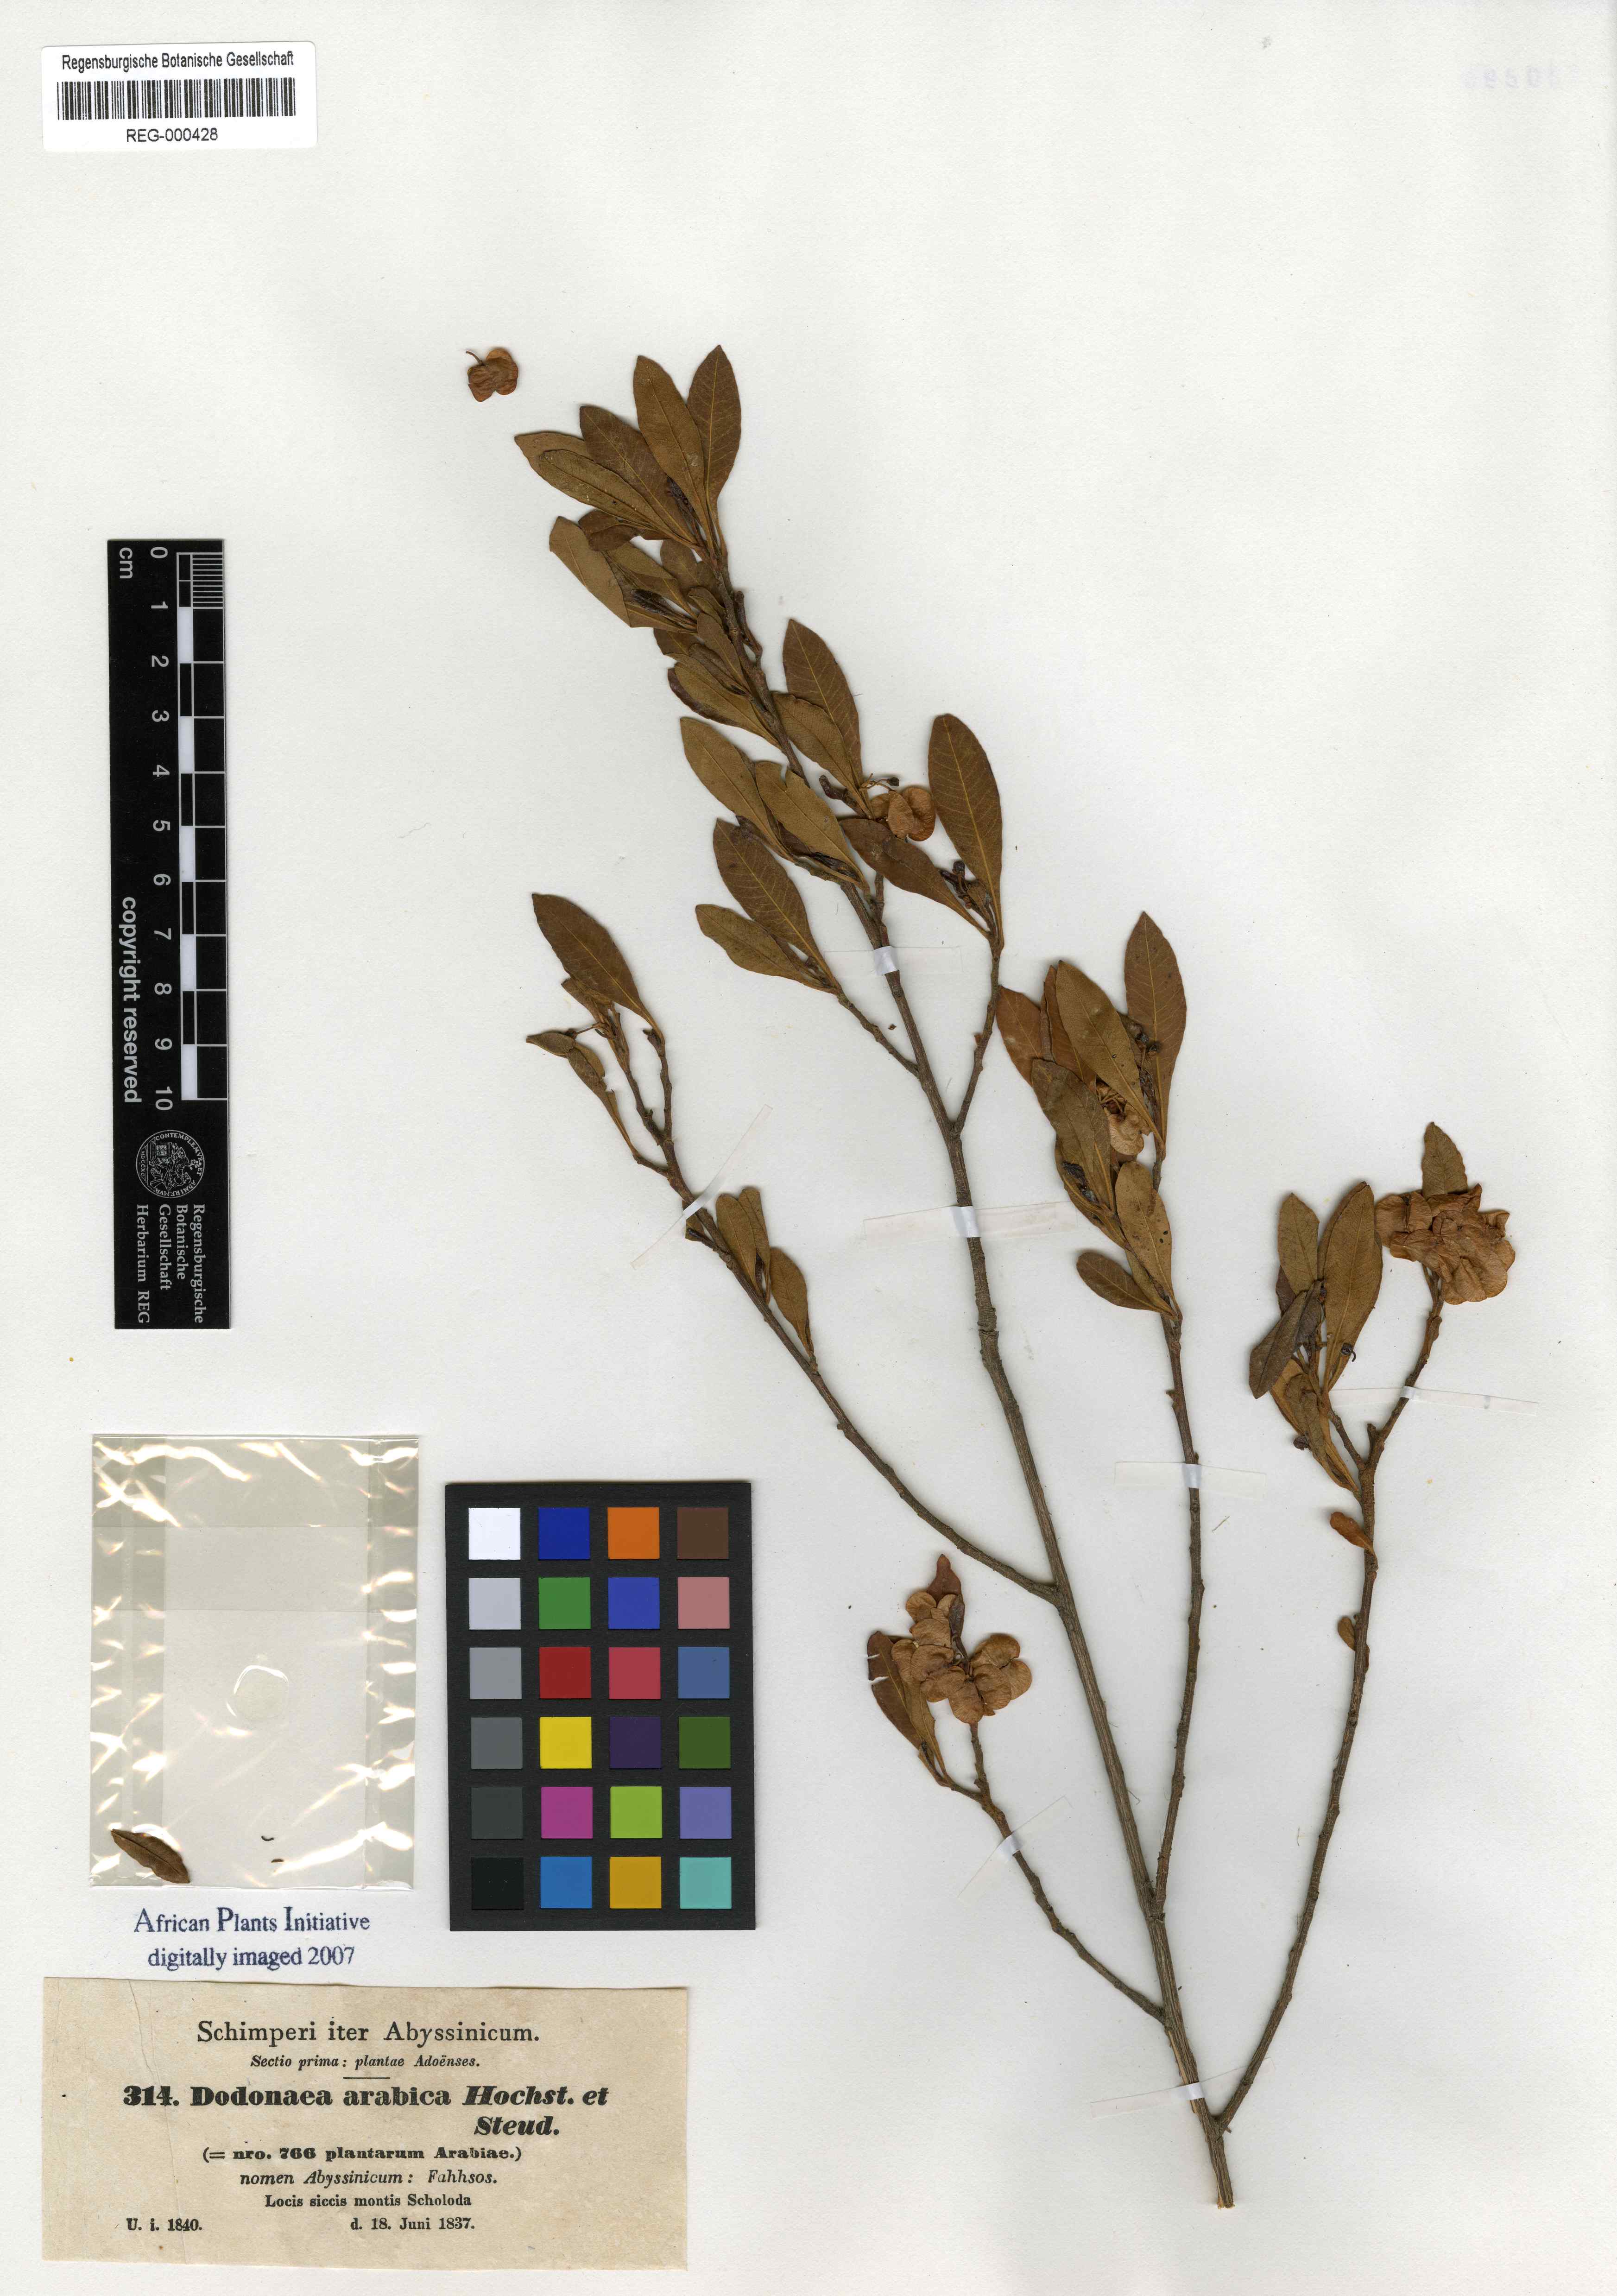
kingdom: Plantae
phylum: Tracheophyta
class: Magnoliopsida
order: Sapindales
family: Sapindaceae
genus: Dodonaea
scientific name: Dodonaea viscosa
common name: Hopbush
